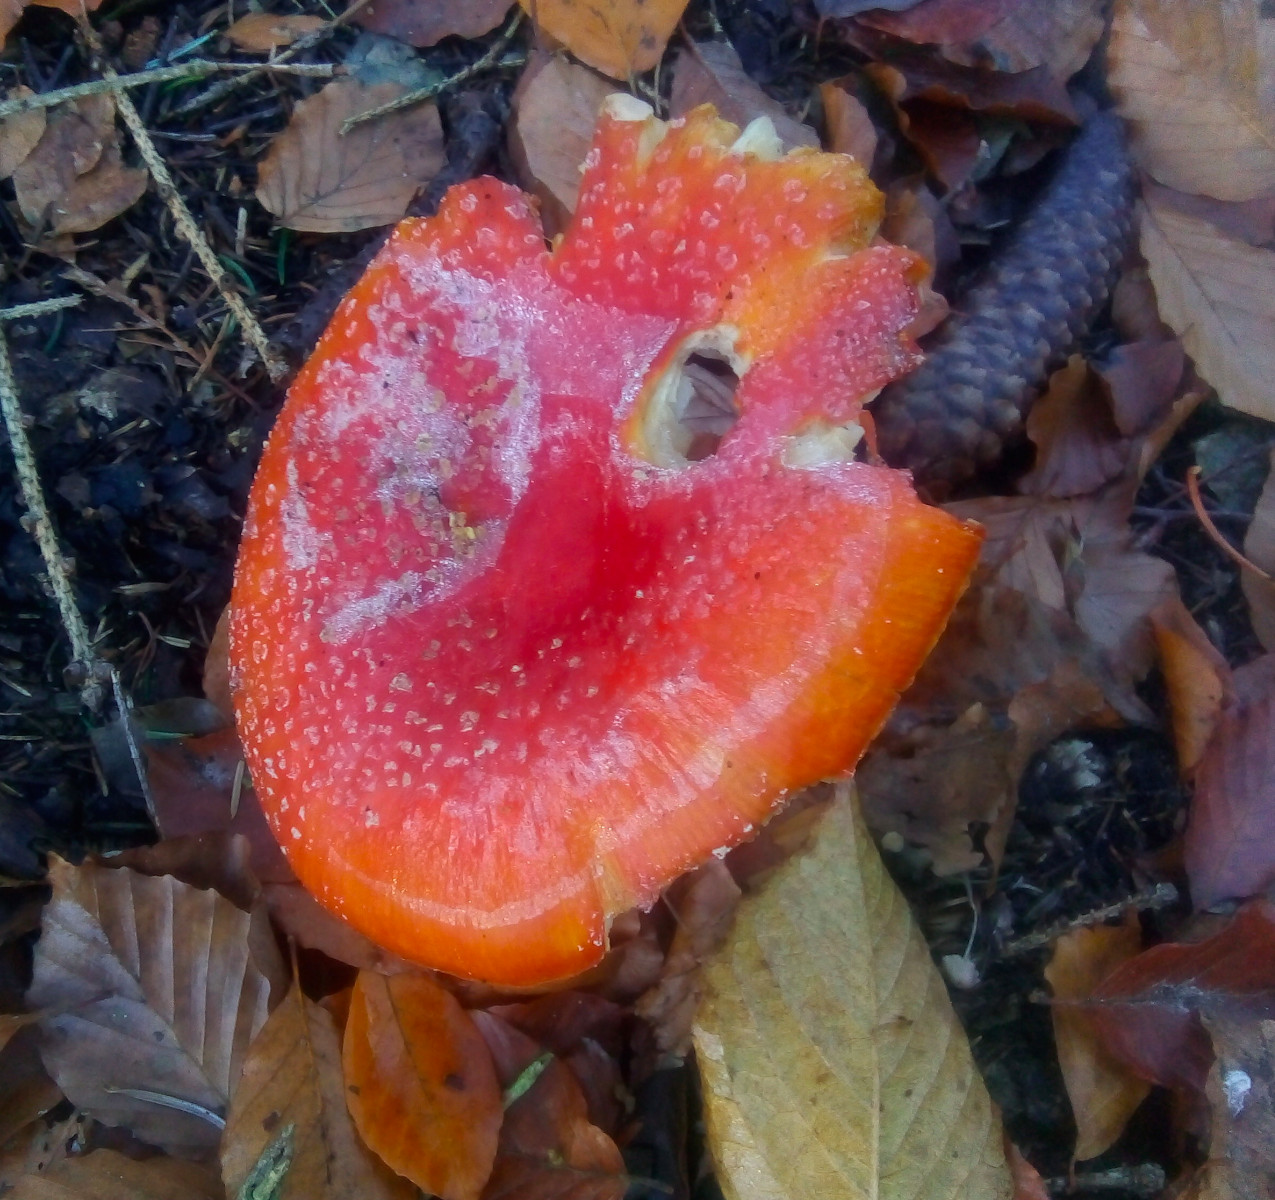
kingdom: Fungi
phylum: Basidiomycota
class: Agaricomycetes
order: Agaricales
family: Amanitaceae
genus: Amanita
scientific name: Amanita muscaria
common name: rød fluesvamp
